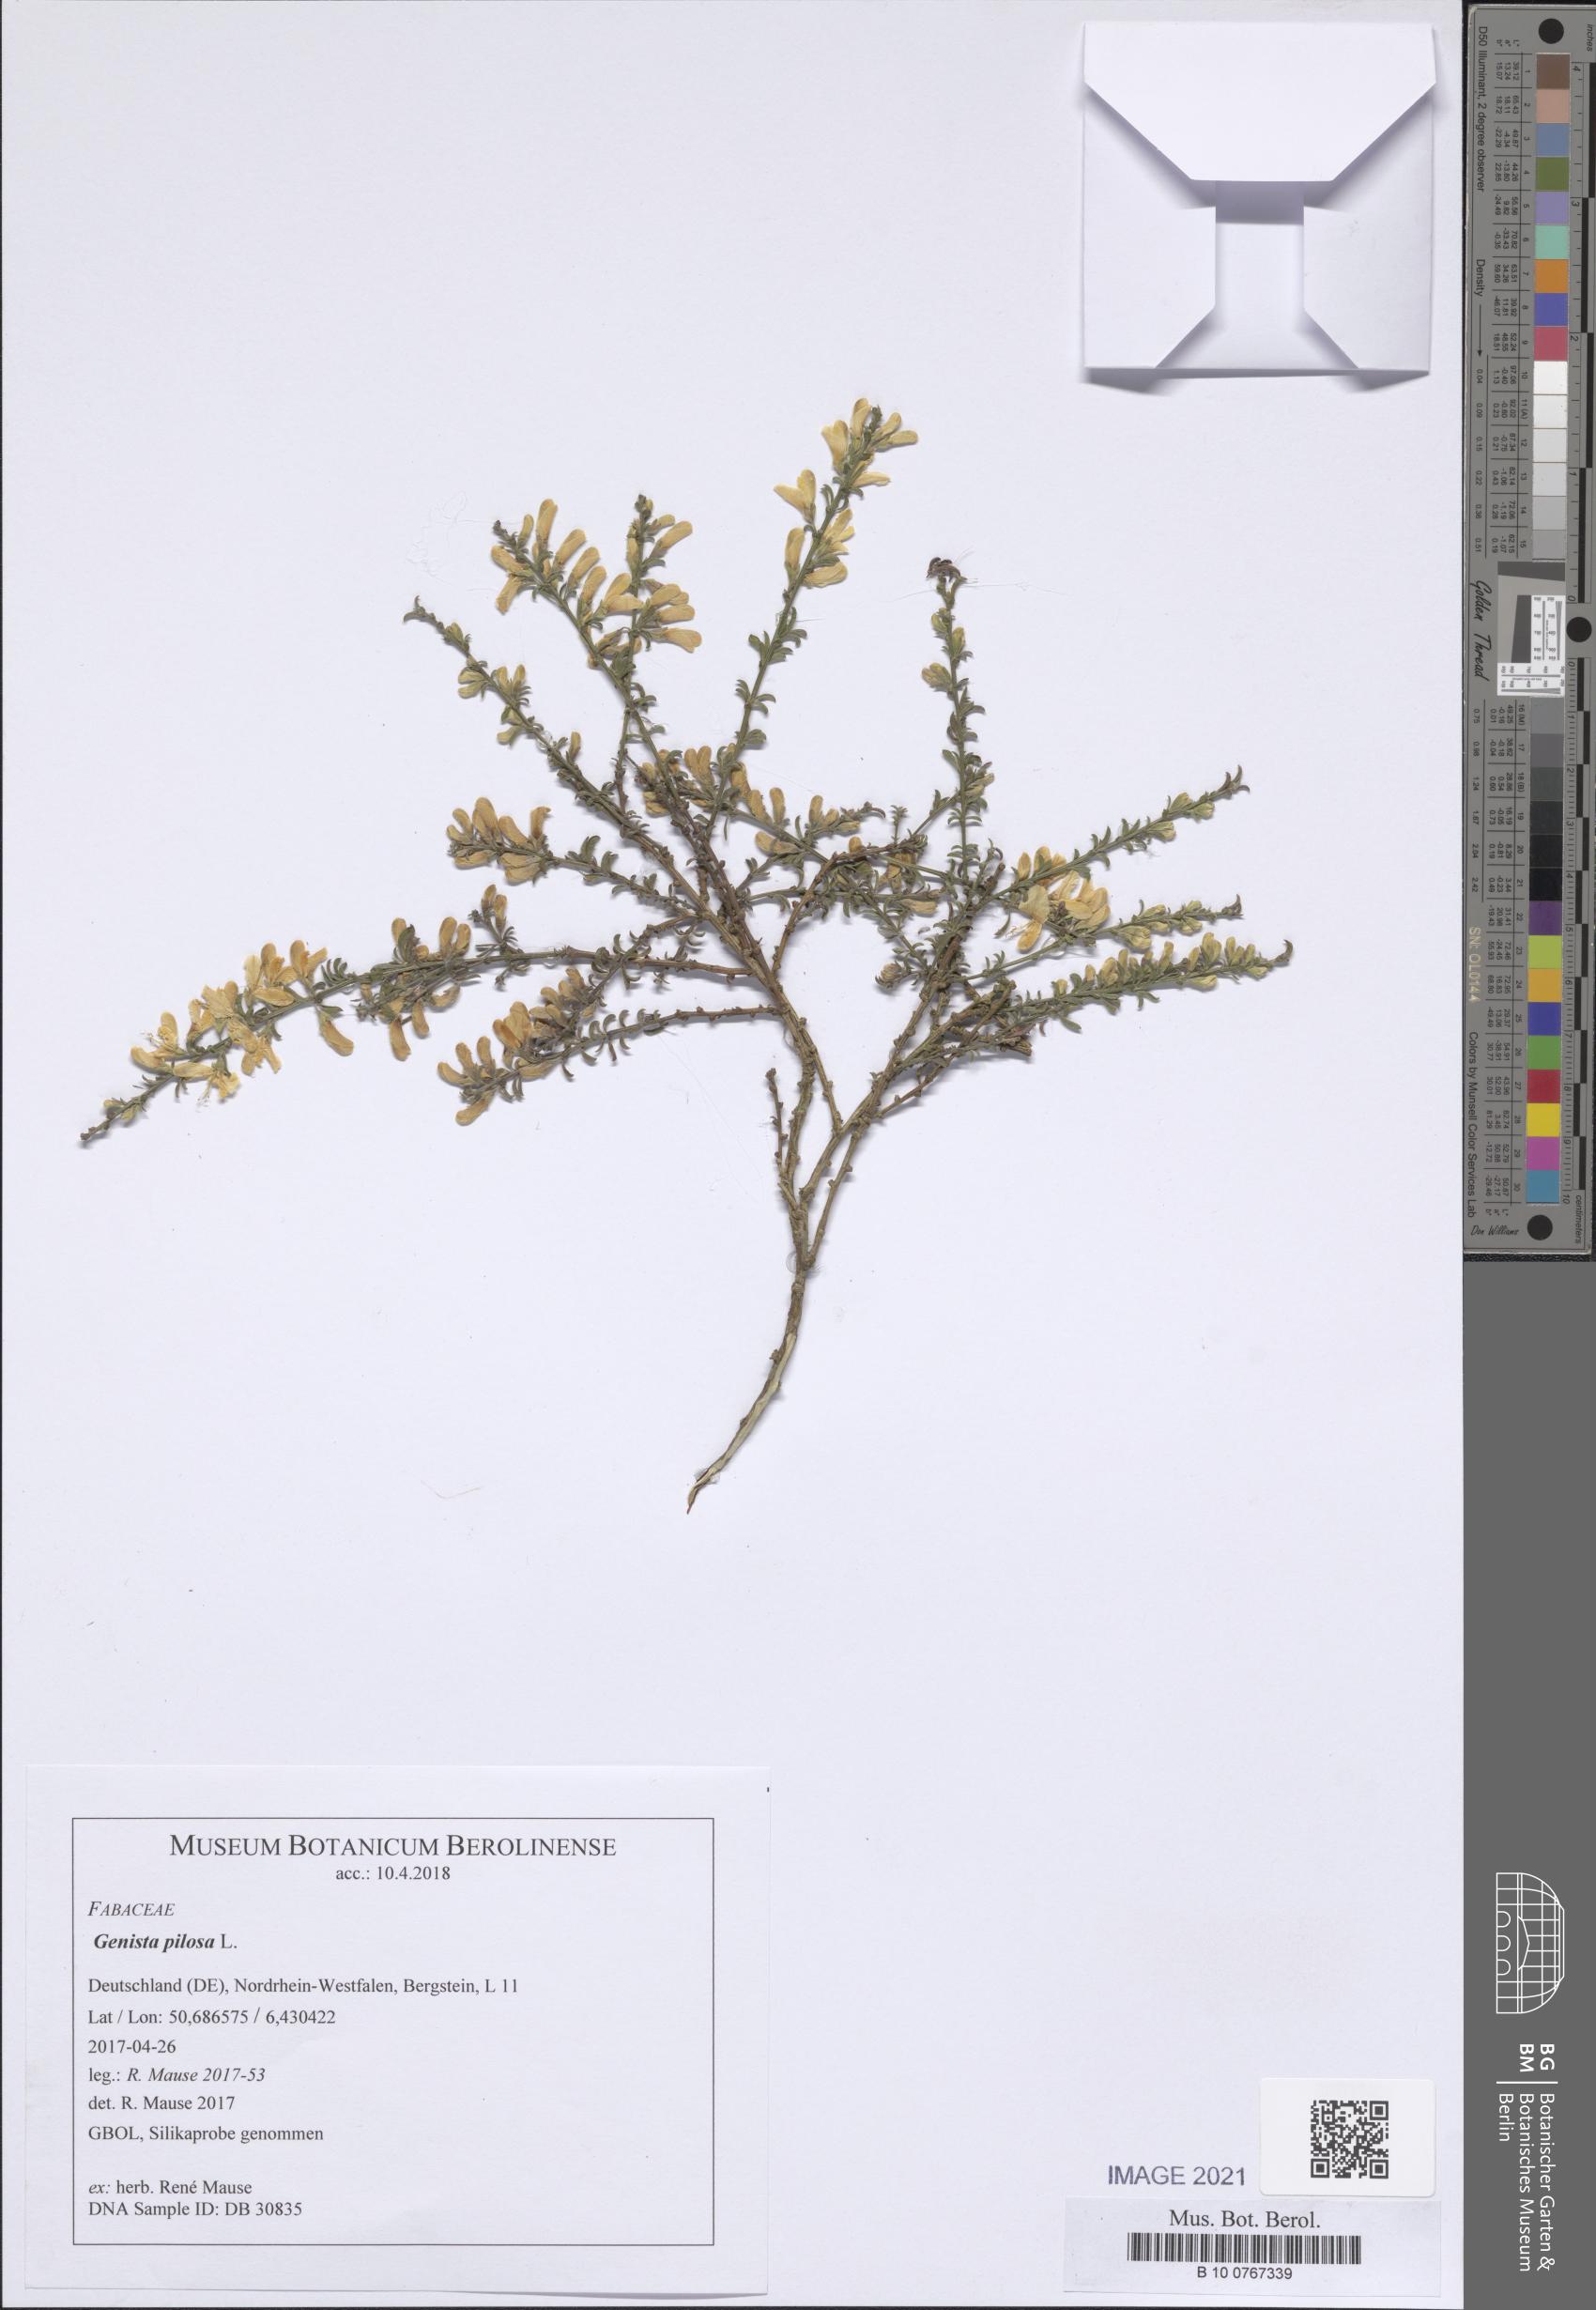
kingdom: Plantae
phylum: Tracheophyta
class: Magnoliopsida
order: Fabales
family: Fabaceae
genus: Genista
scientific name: Genista pilosa
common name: Hairy greenweed
